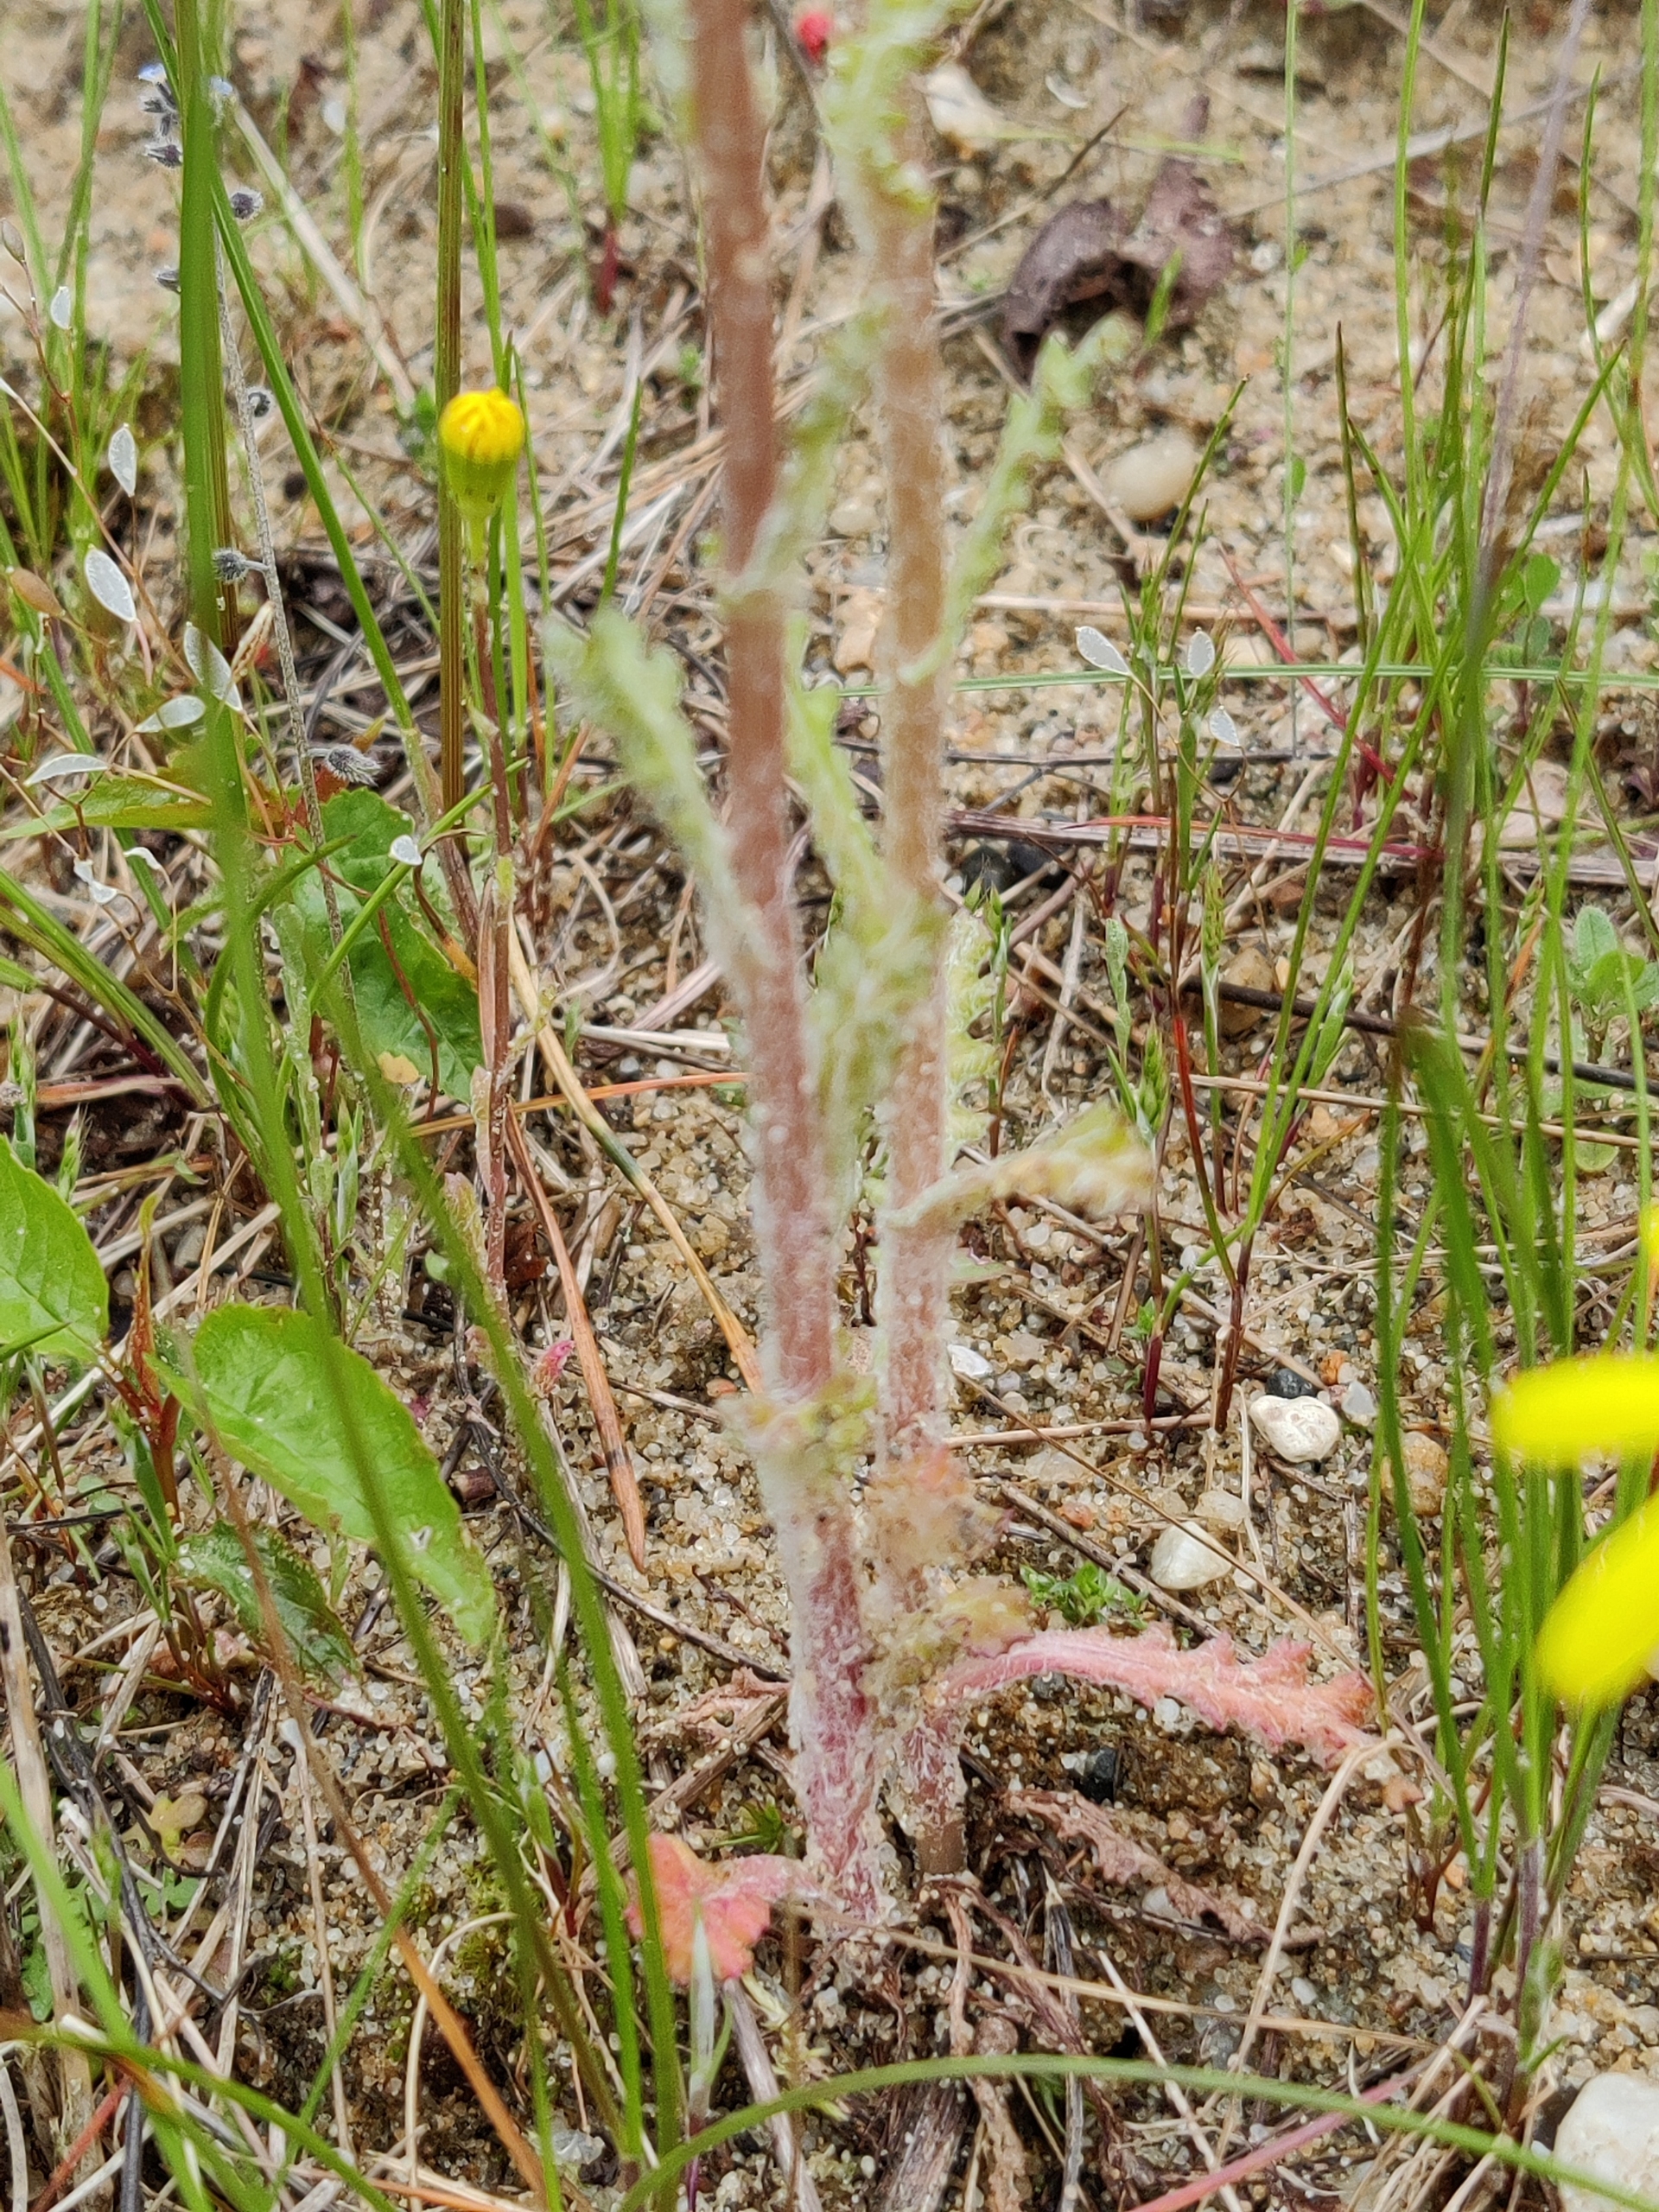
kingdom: Plantae
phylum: Tracheophyta
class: Magnoliopsida
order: Asterales
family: Asteraceae
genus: Senecio
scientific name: Senecio leucanthemifolius
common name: Vår-brandbæger
